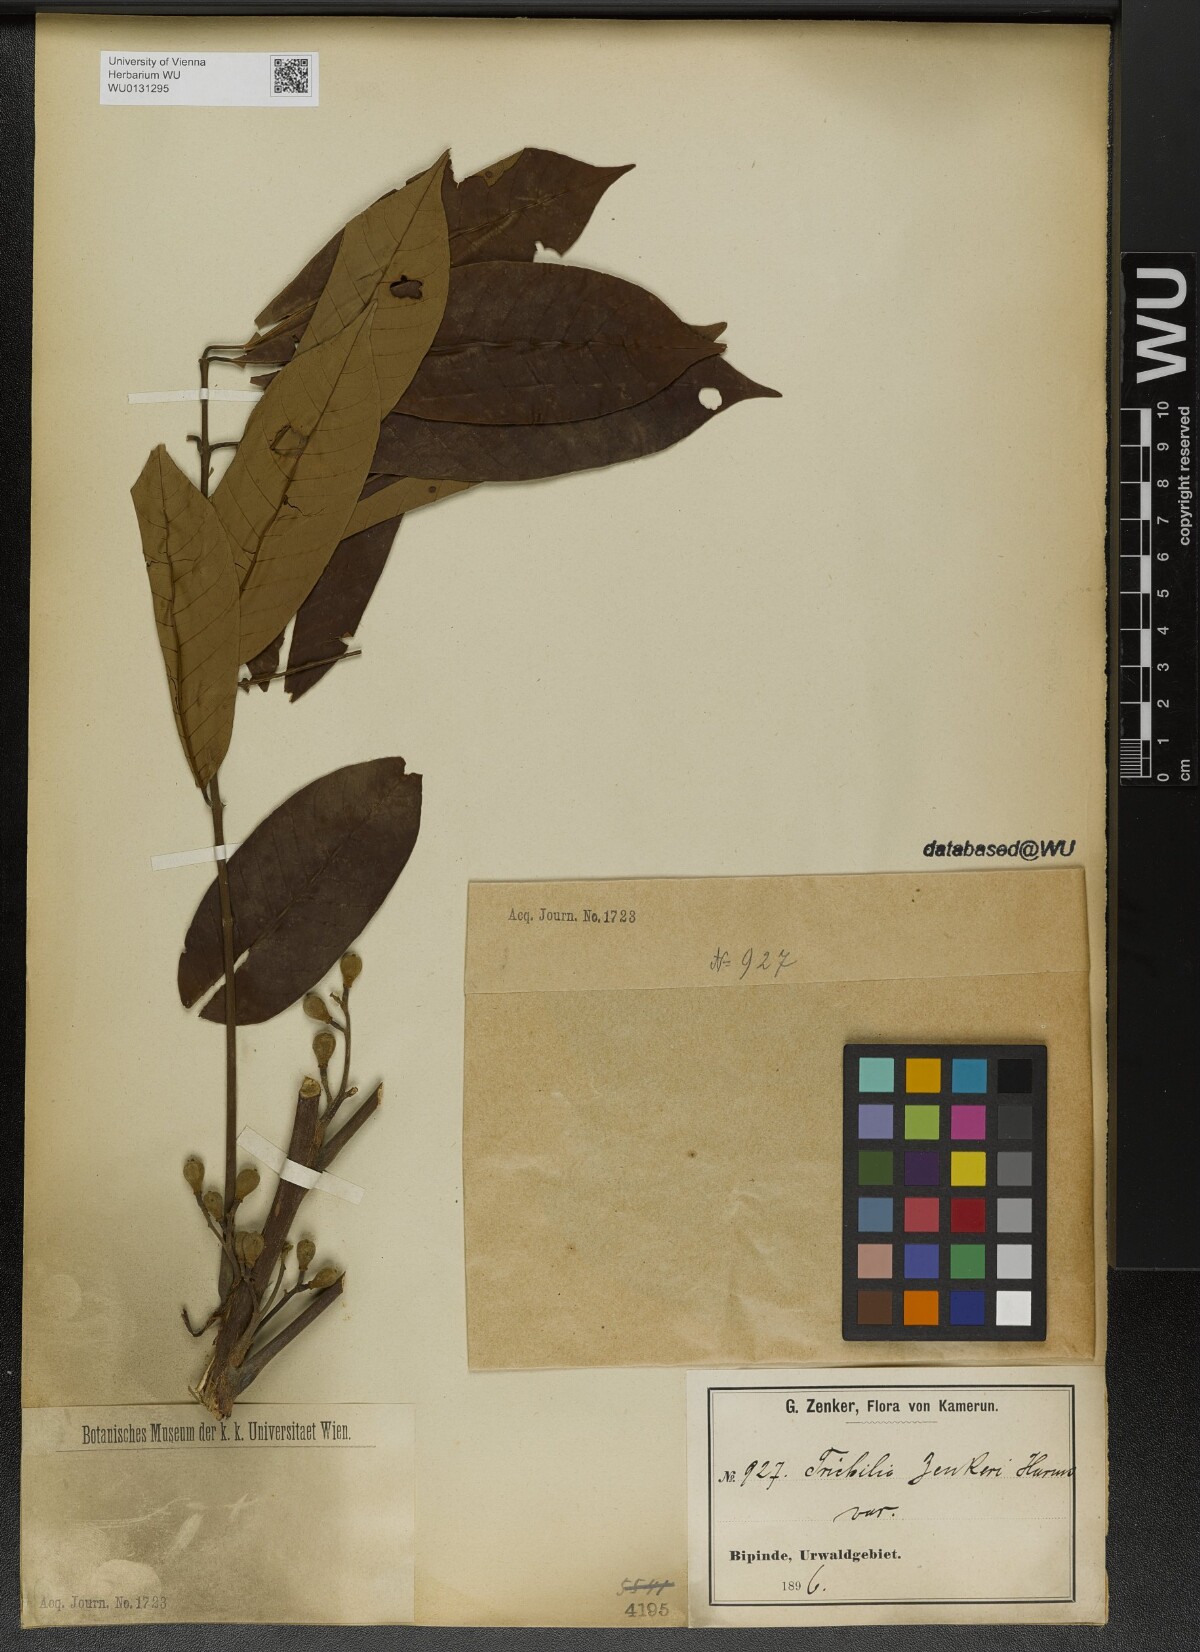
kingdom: Plantae
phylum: Tracheophyta
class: Magnoliopsida
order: Sapindales
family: Meliaceae
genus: Trichilia
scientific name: Trichilia welwitschii
